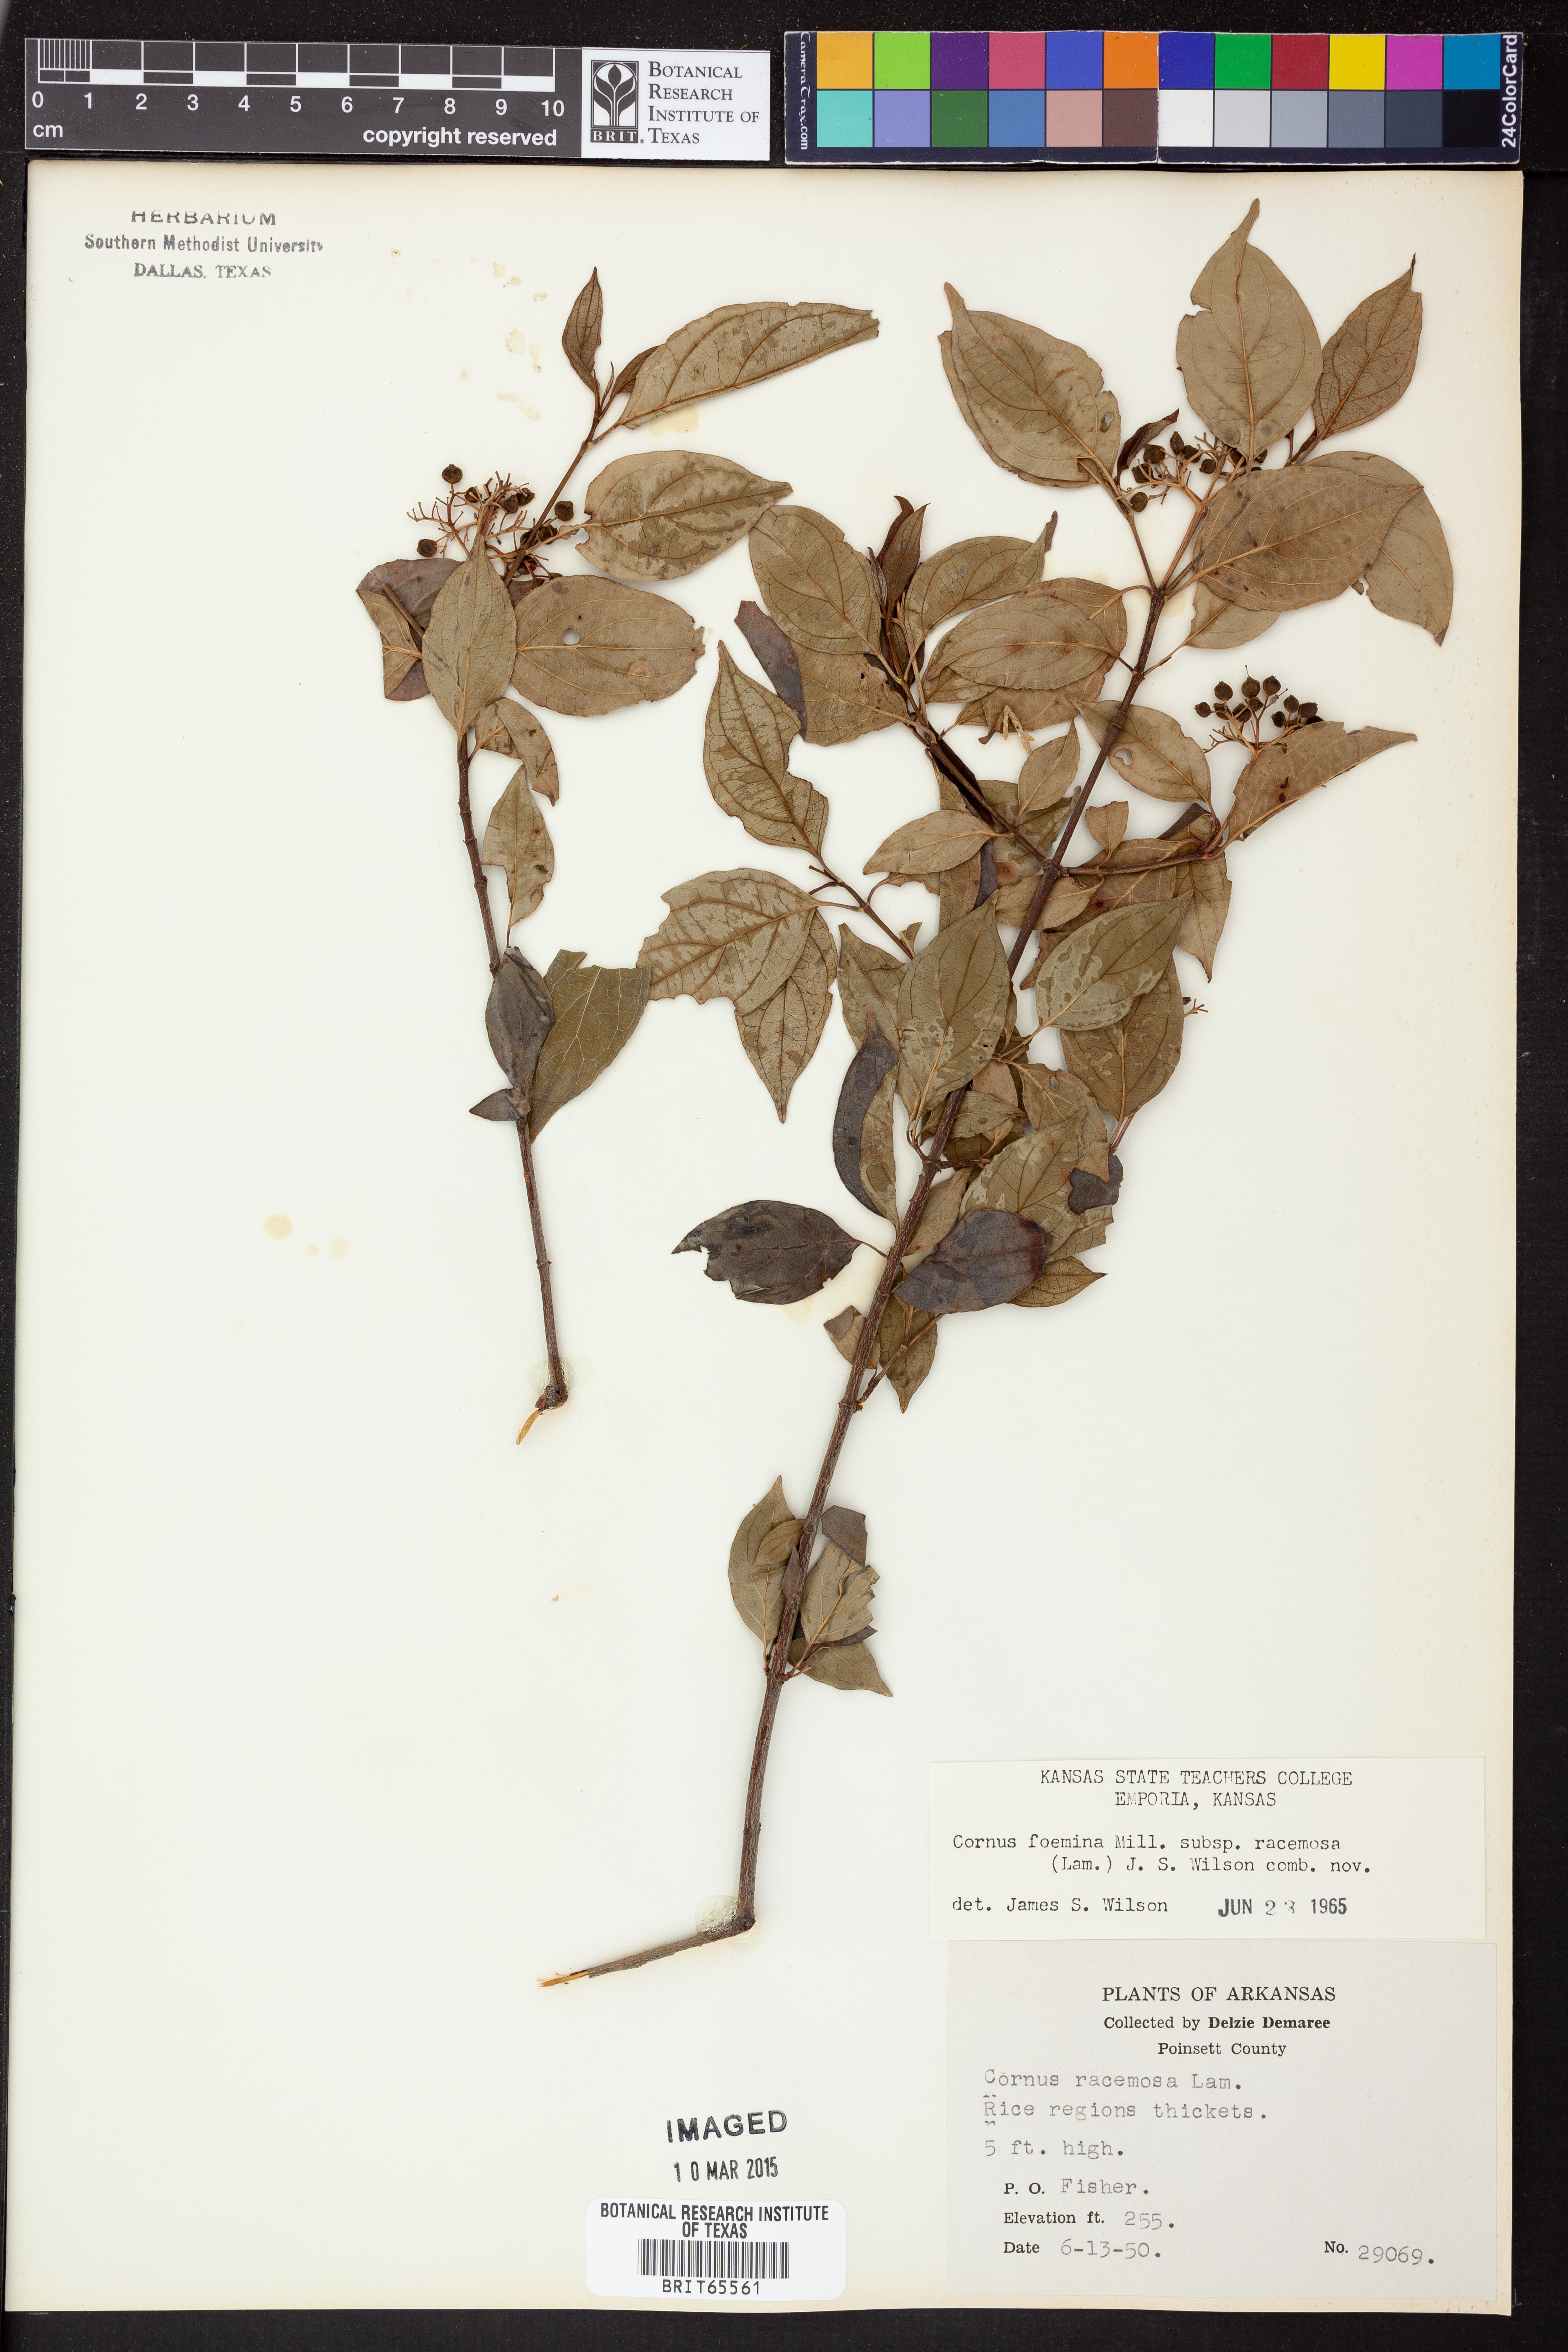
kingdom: Plantae
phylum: Tracheophyta
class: Magnoliopsida
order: Cornales
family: Cornaceae
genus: Cornus
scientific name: Cornus racemosa
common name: Panicled dogwood
